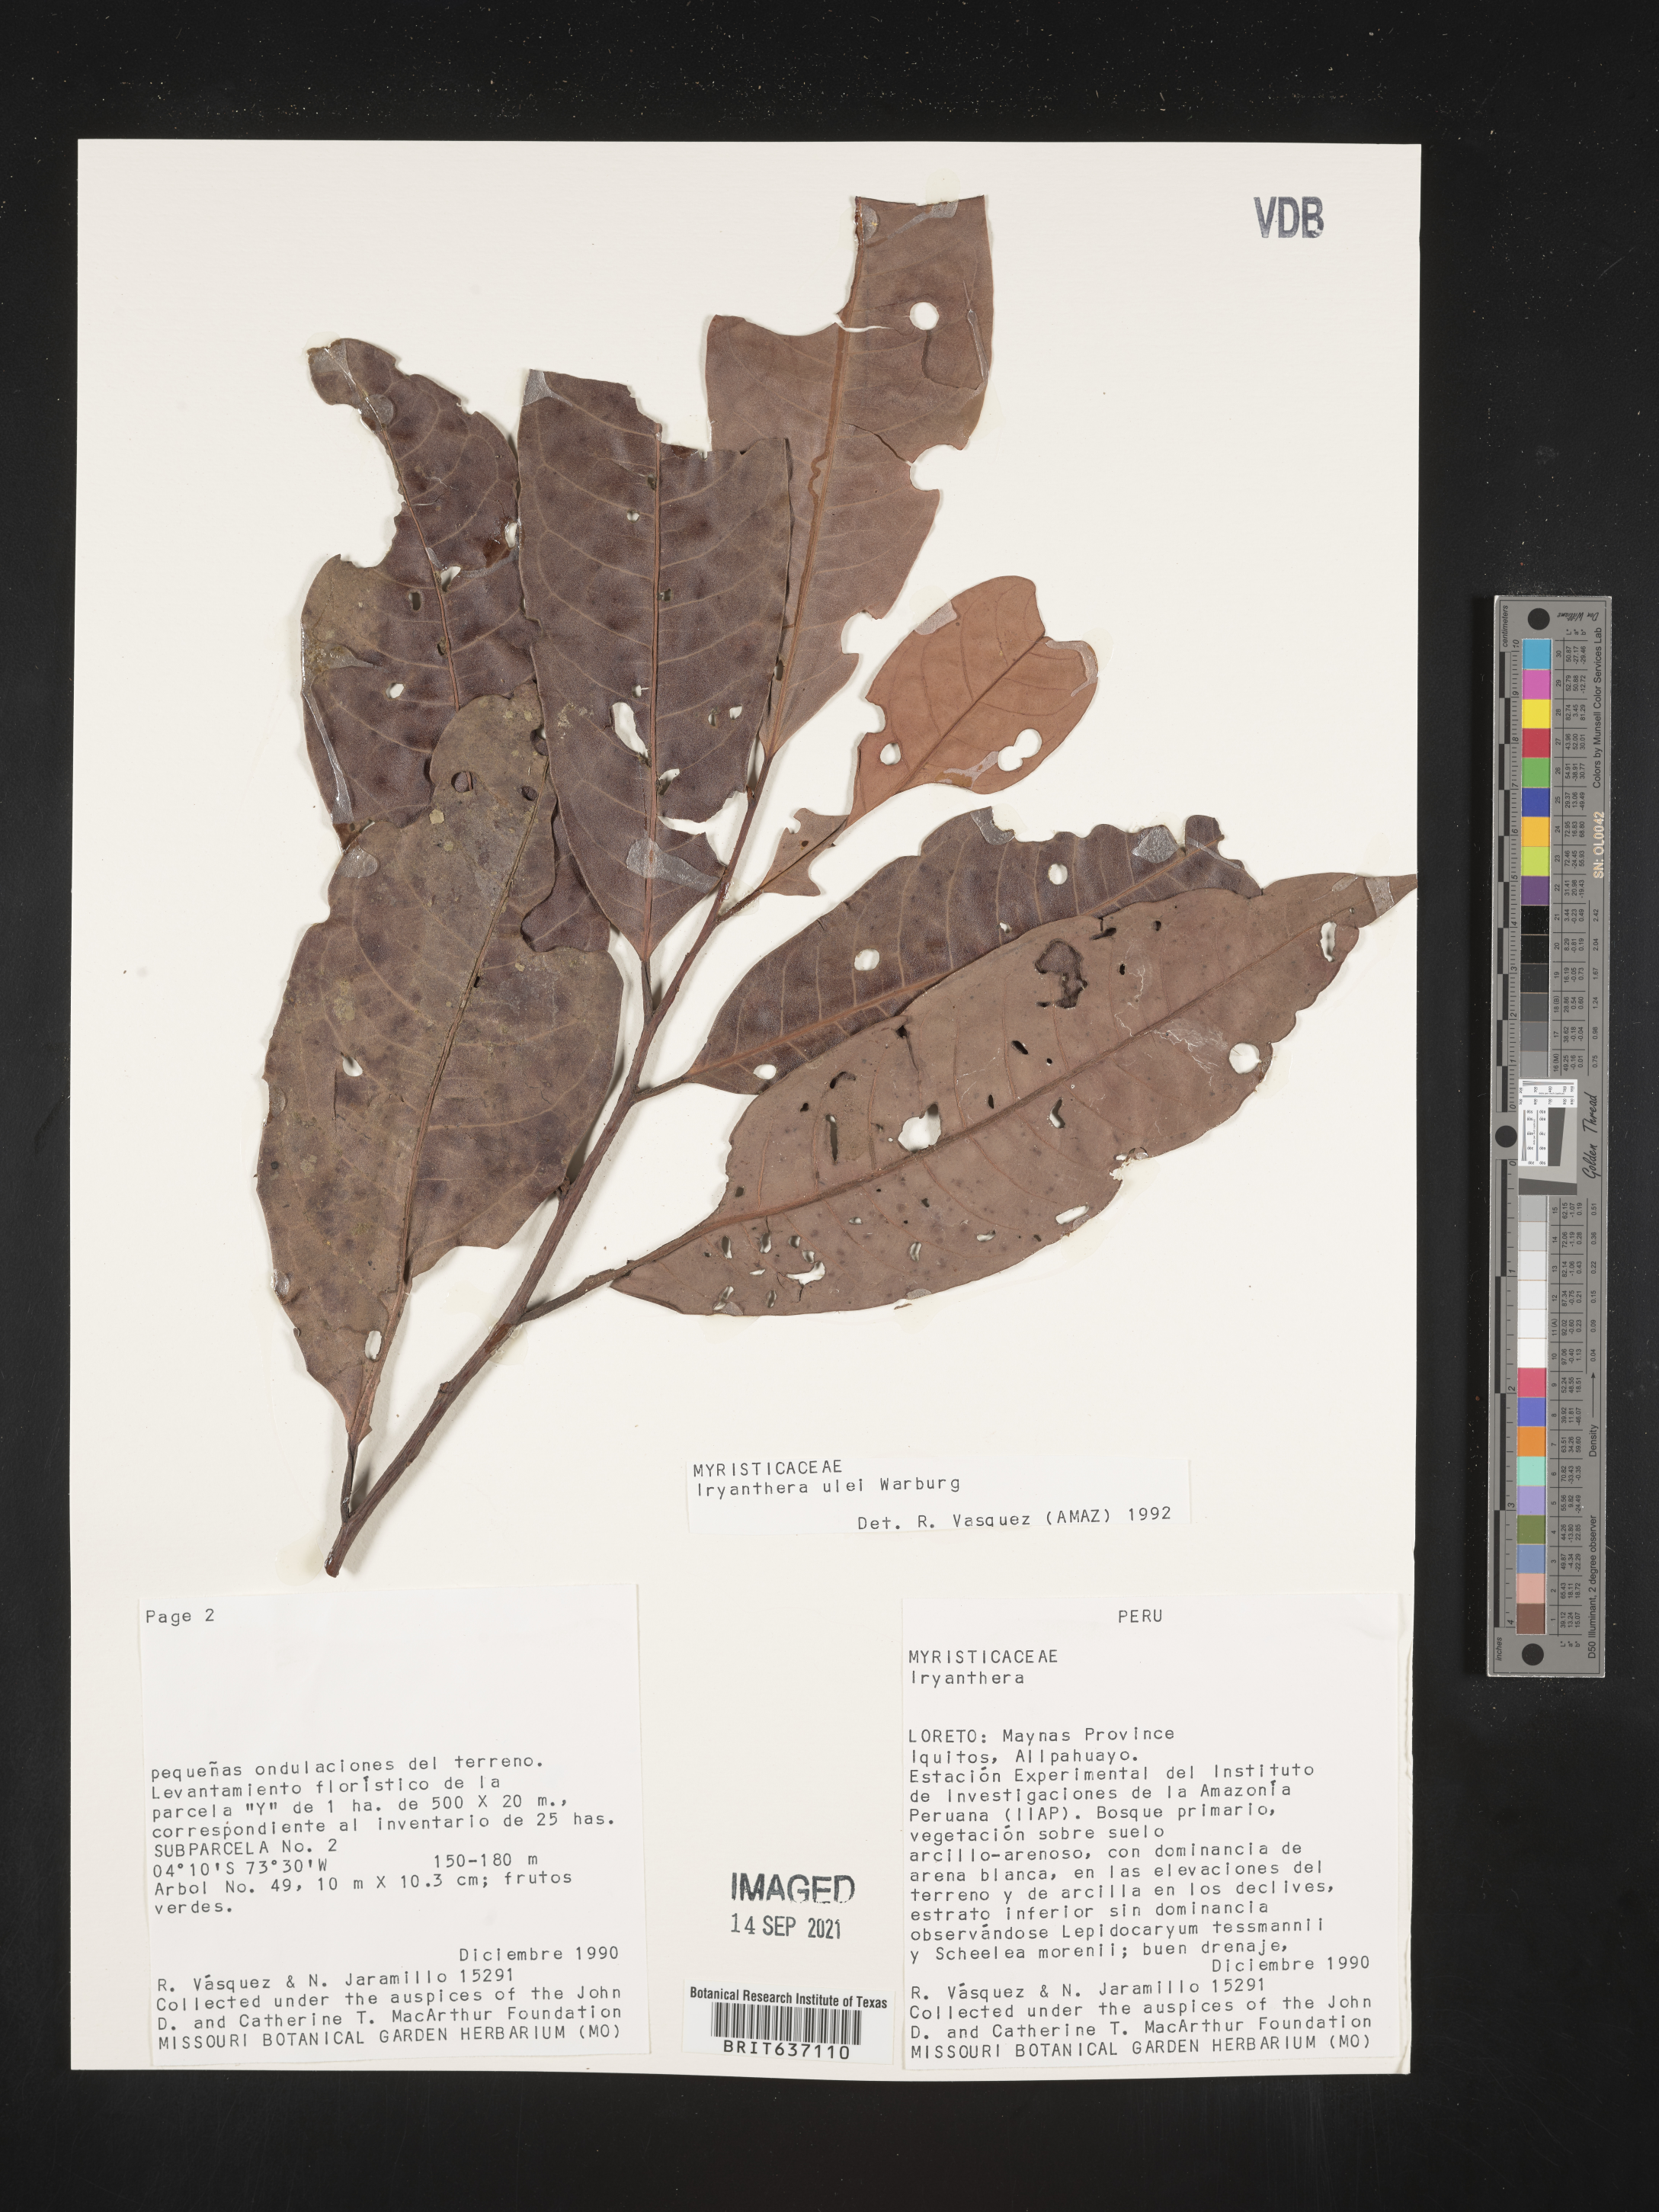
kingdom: Plantae
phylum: Tracheophyta
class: Magnoliopsida
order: Magnoliales
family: Myristicaceae
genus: Iryanthera
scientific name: Iryanthera
